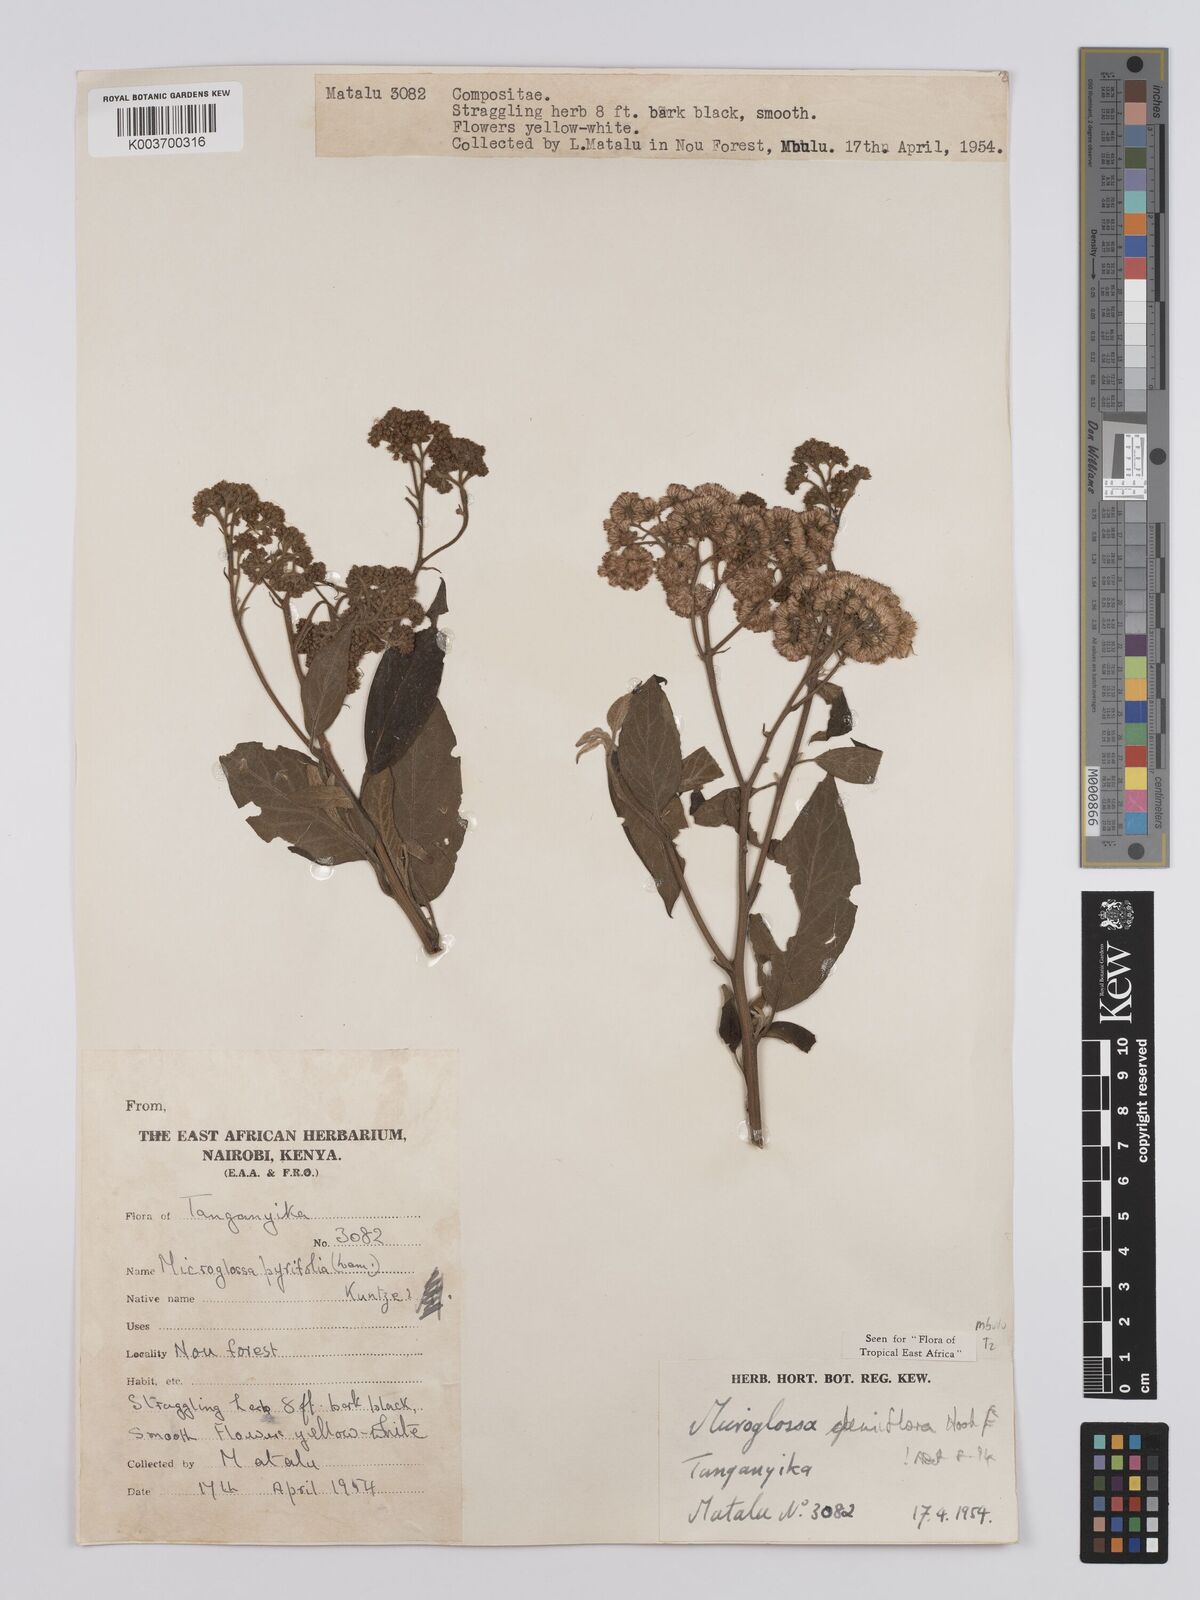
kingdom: Plantae
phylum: Tracheophyta
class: Magnoliopsida
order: Asterales
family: Asteraceae
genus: Microglossa
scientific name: Microglossa densiflora
